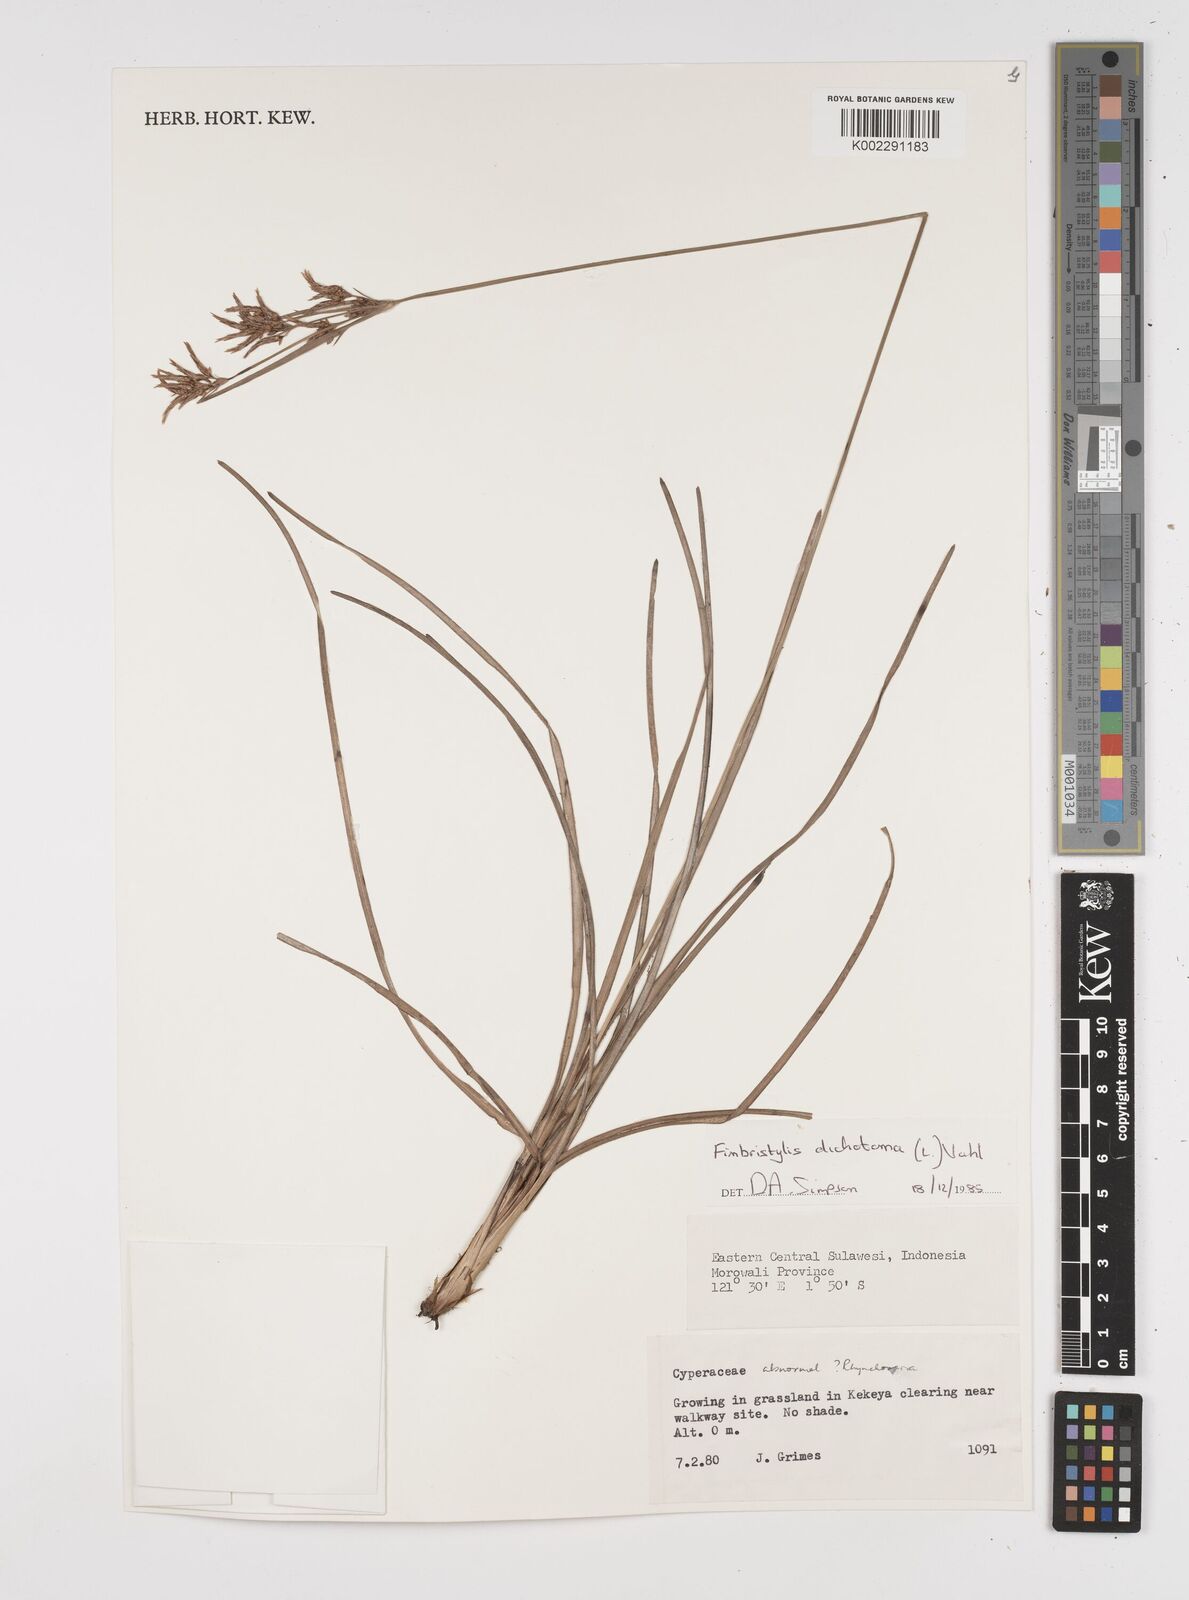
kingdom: Plantae
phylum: Tracheophyta
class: Liliopsida
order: Poales
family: Cyperaceae
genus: Fimbristylis
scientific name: Fimbristylis dichotoma
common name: Forked fimbry
